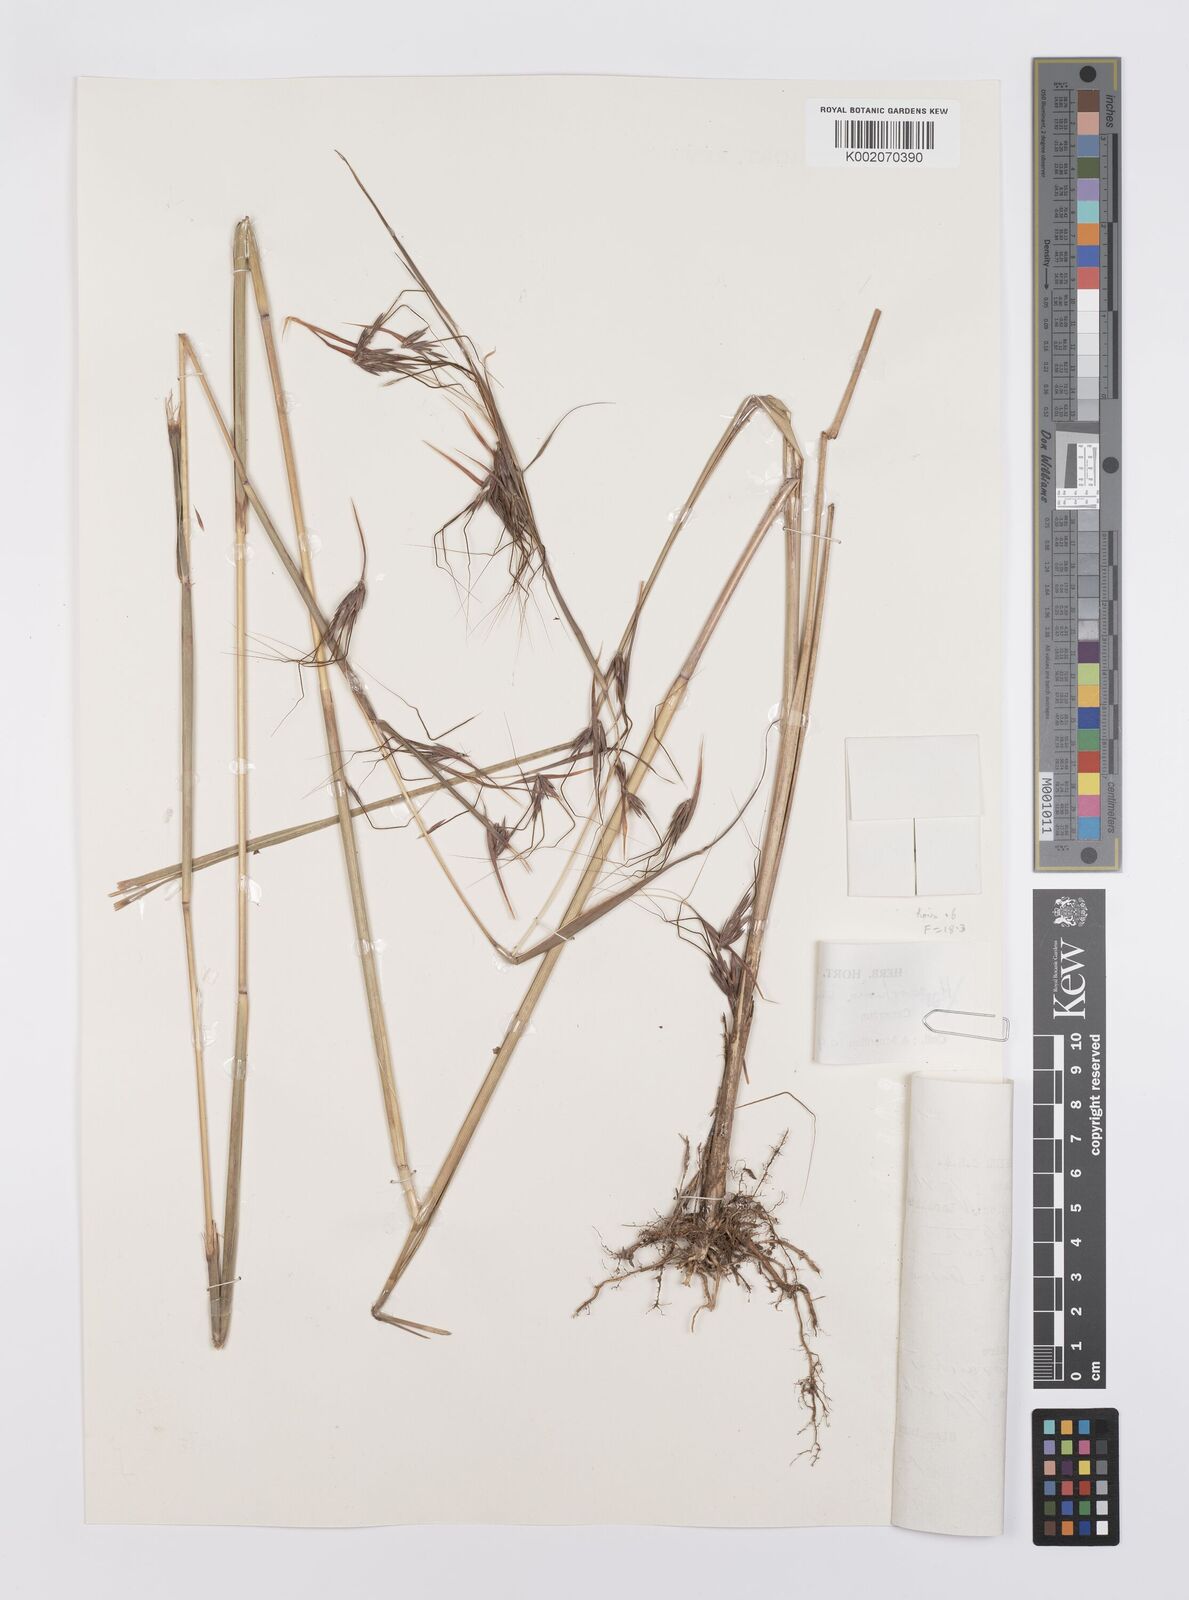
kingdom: Plantae
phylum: Tracheophyta
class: Liliopsida
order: Poales
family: Poaceae
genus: Hyparrhenia
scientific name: Hyparrhenia subplumosa
